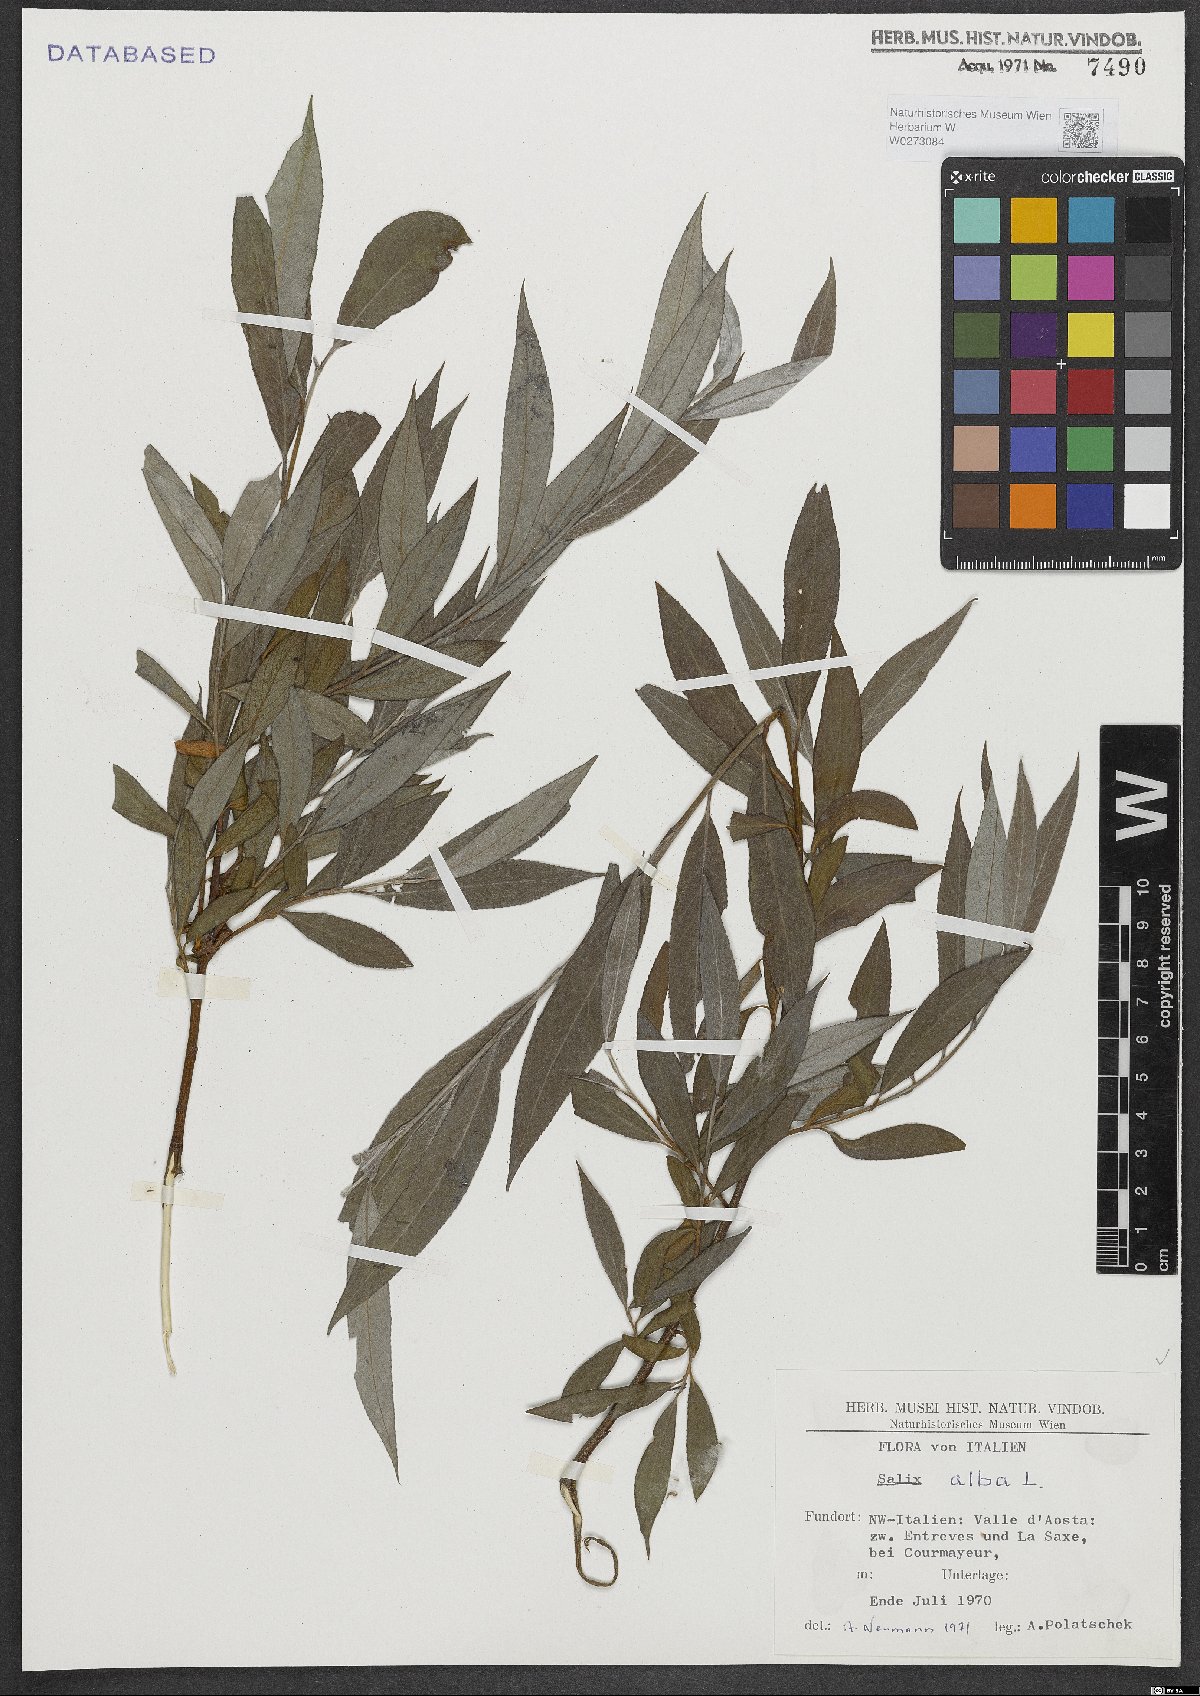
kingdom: Plantae
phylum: Tracheophyta
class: Magnoliopsida
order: Malpighiales
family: Salicaceae
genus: Salix
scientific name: Salix alba
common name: White willow
